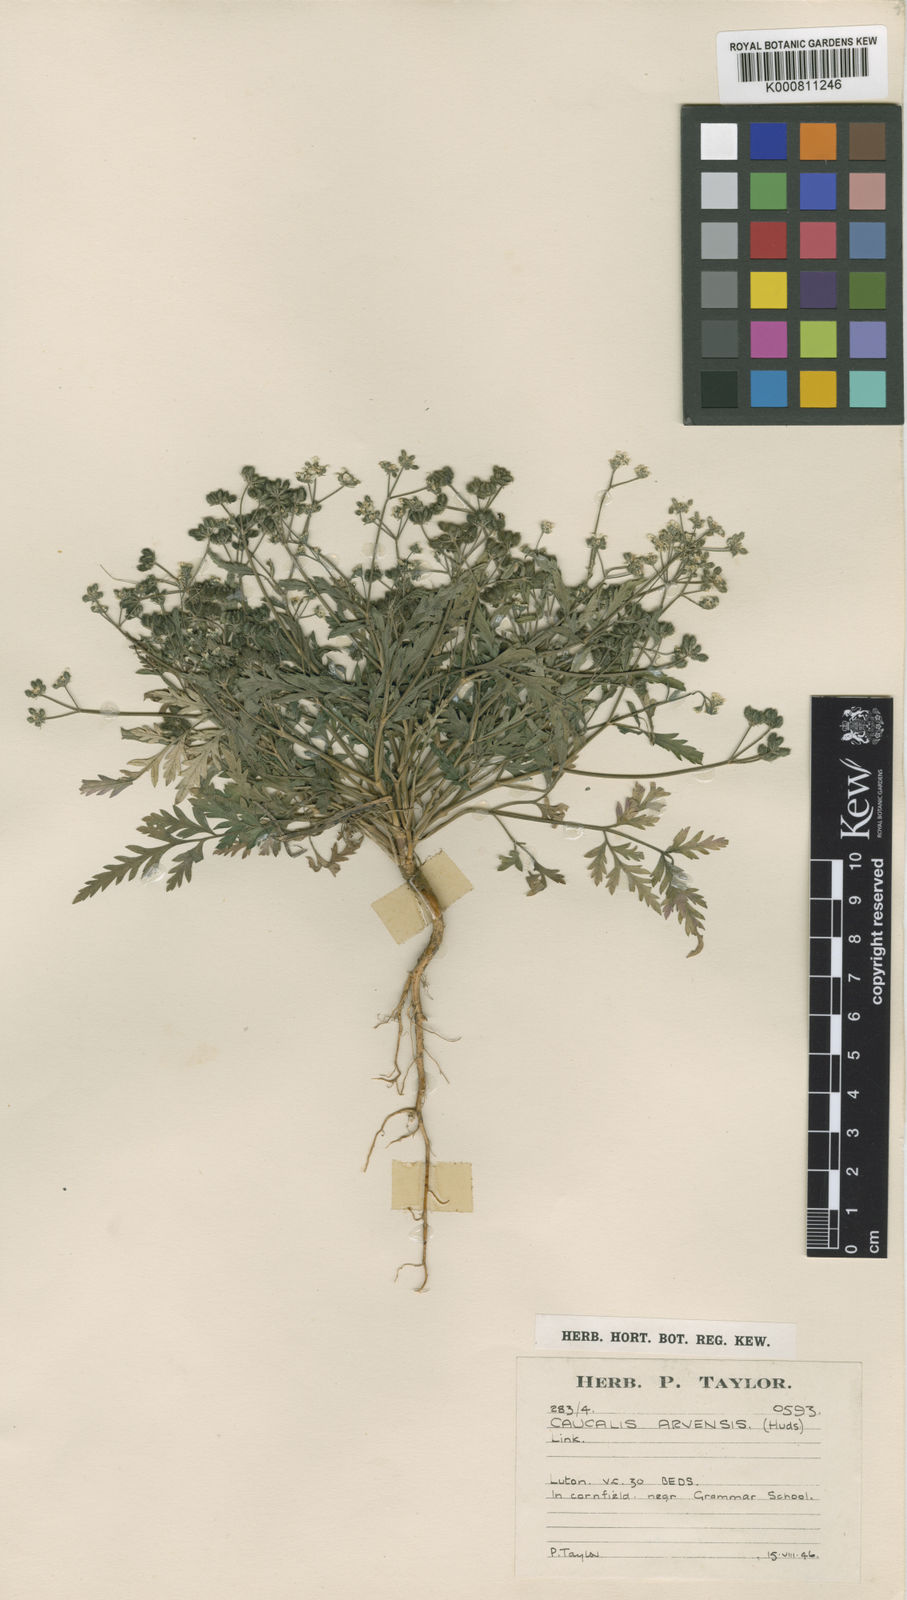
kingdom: Plantae
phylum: Tracheophyta
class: Magnoliopsida
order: Apiales
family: Apiaceae
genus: Torilis
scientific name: Torilis arvensis
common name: Spreading hedge-parsley
